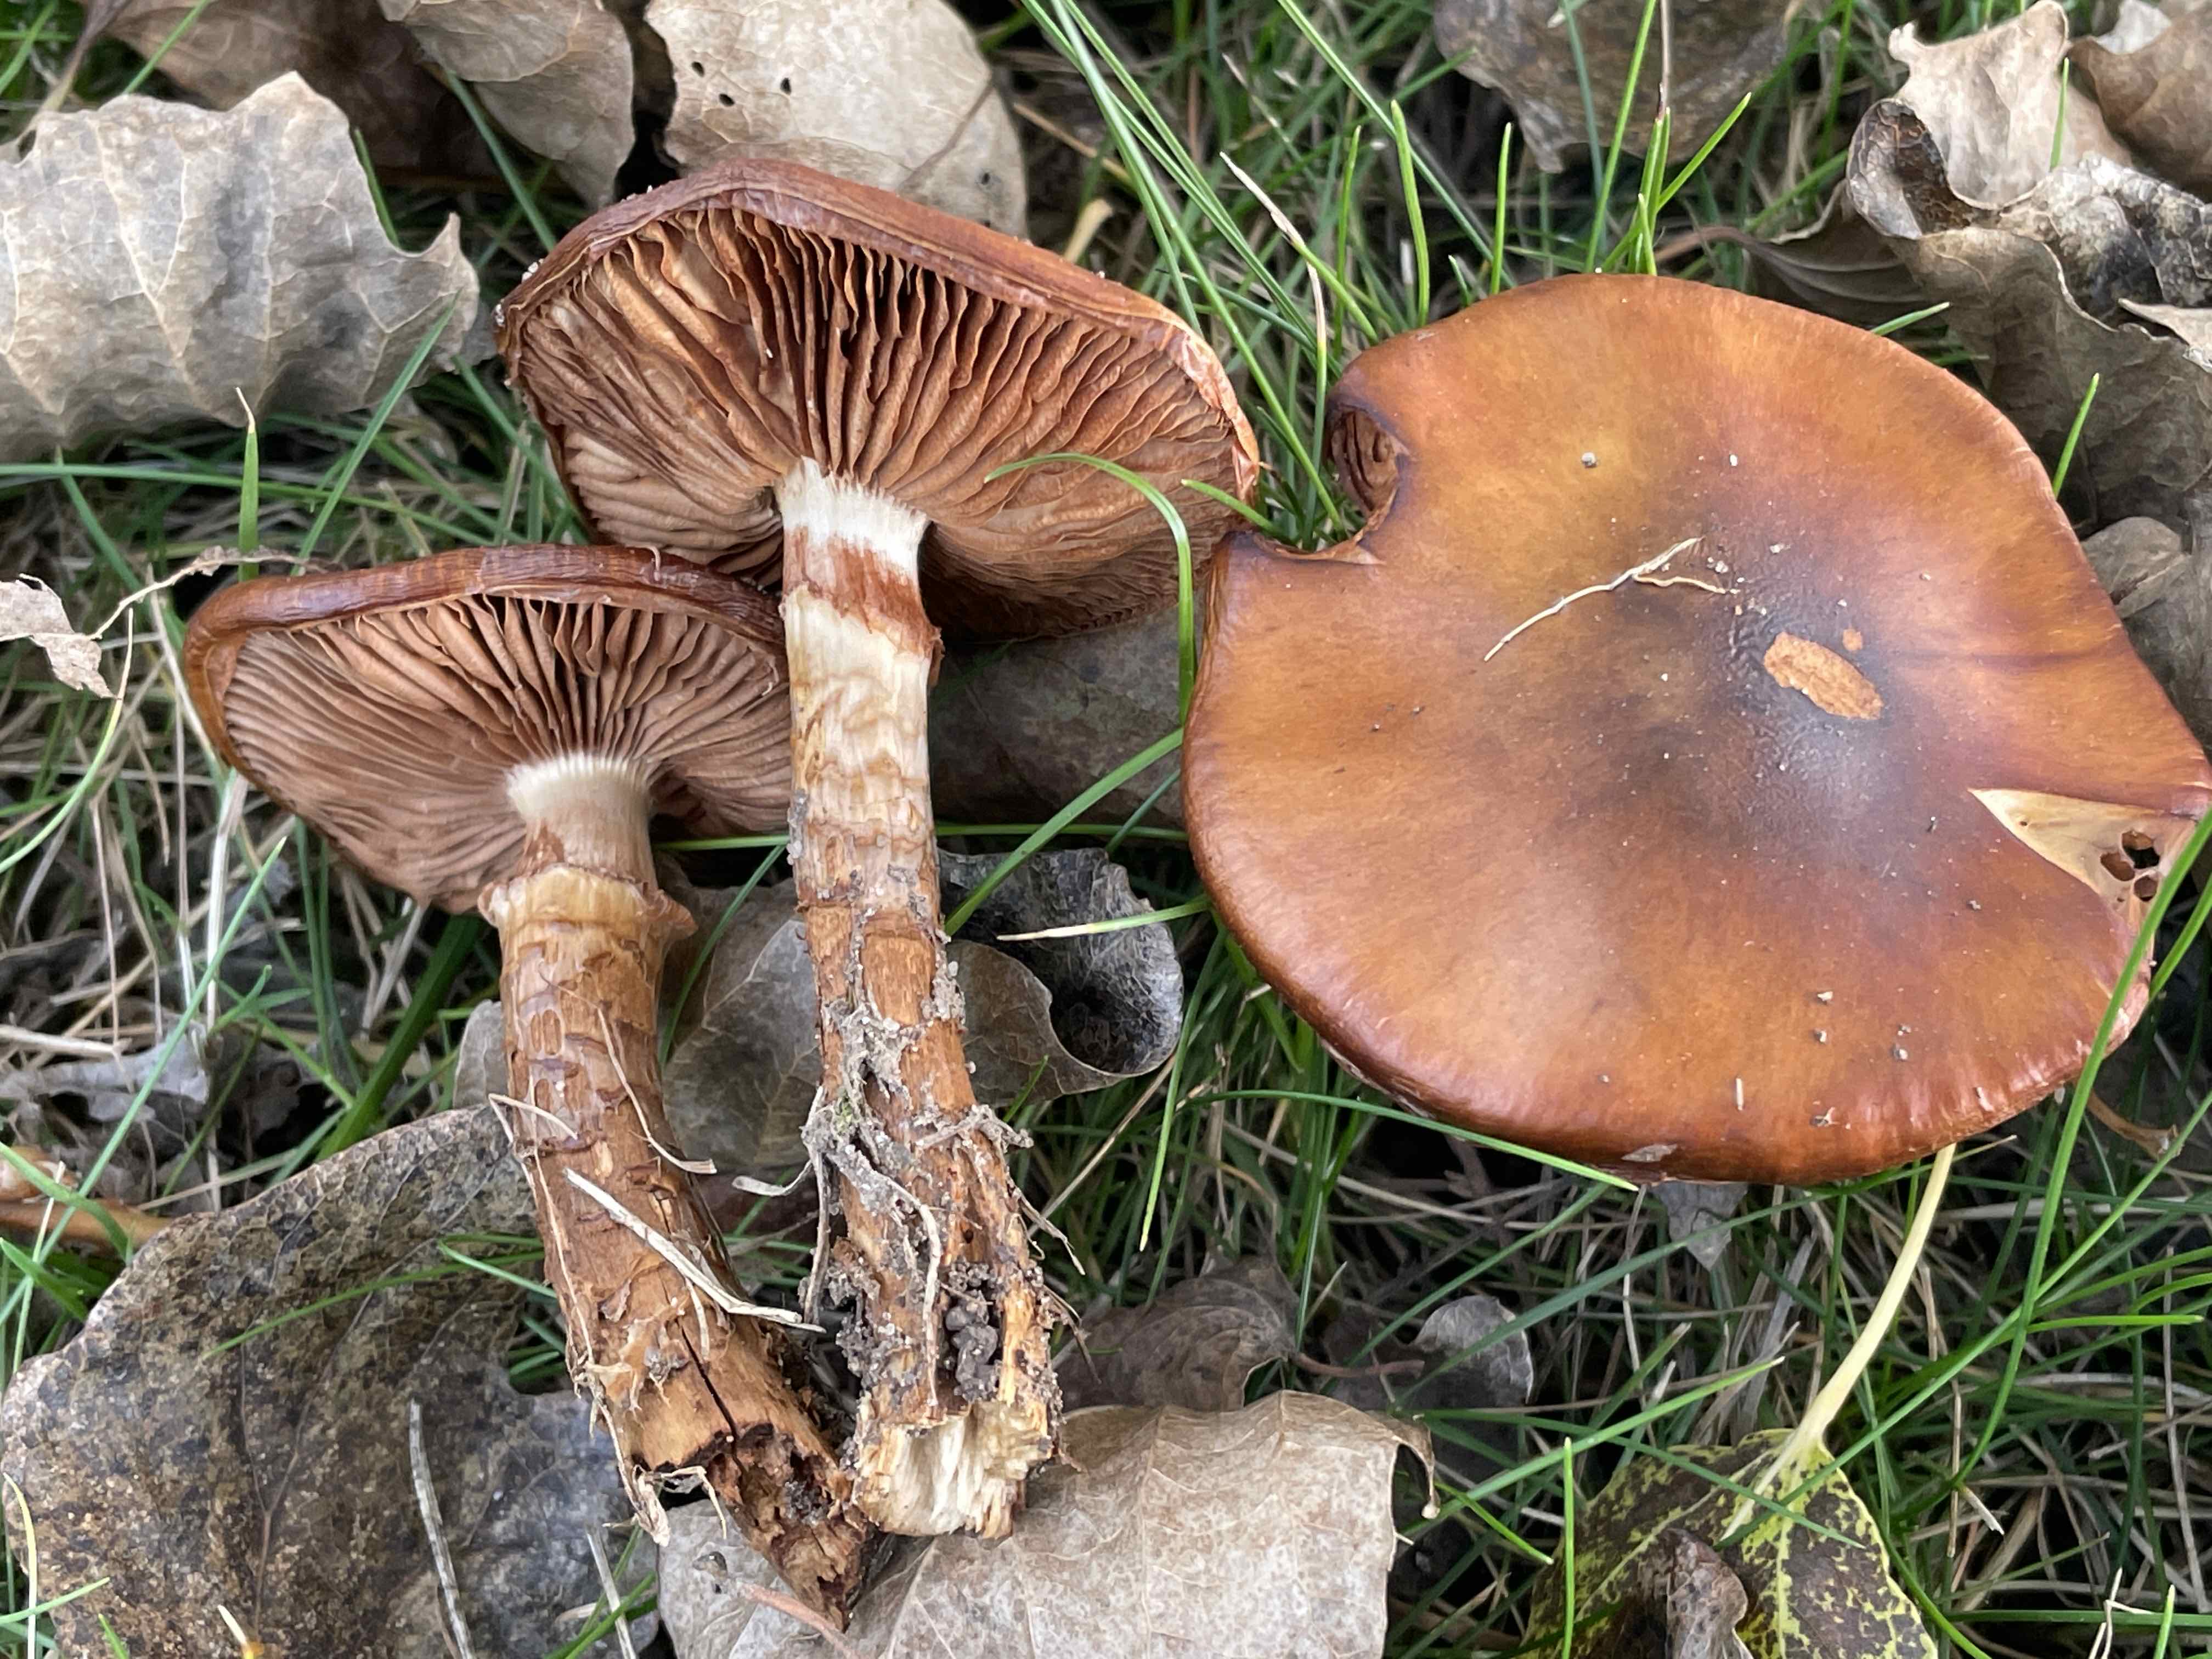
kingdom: Fungi
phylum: Basidiomycota
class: Agaricomycetes
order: Agaricales
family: Cortinariaceae
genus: Cortinarius
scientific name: Cortinarius trivialis
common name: Girdled webcap
